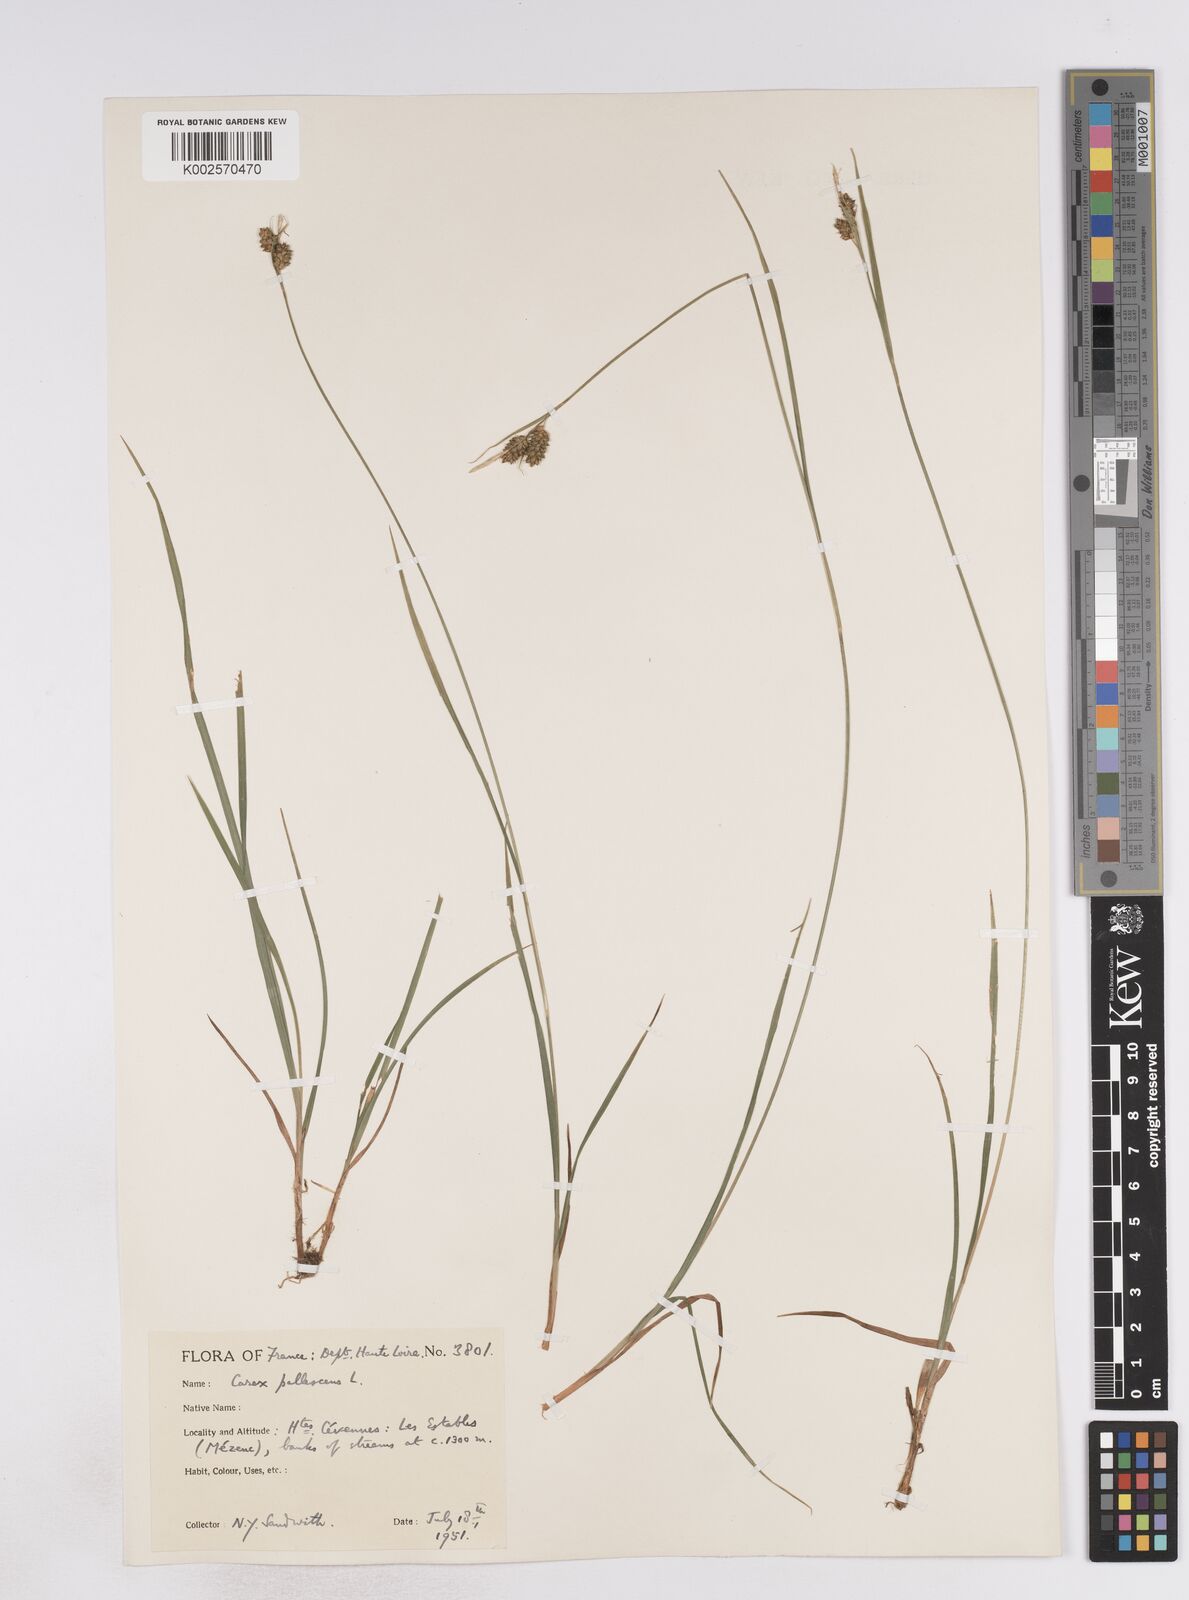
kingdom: Plantae
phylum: Tracheophyta
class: Liliopsida
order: Poales
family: Cyperaceae
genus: Carex
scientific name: Carex pallescens
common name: Pale sedge
